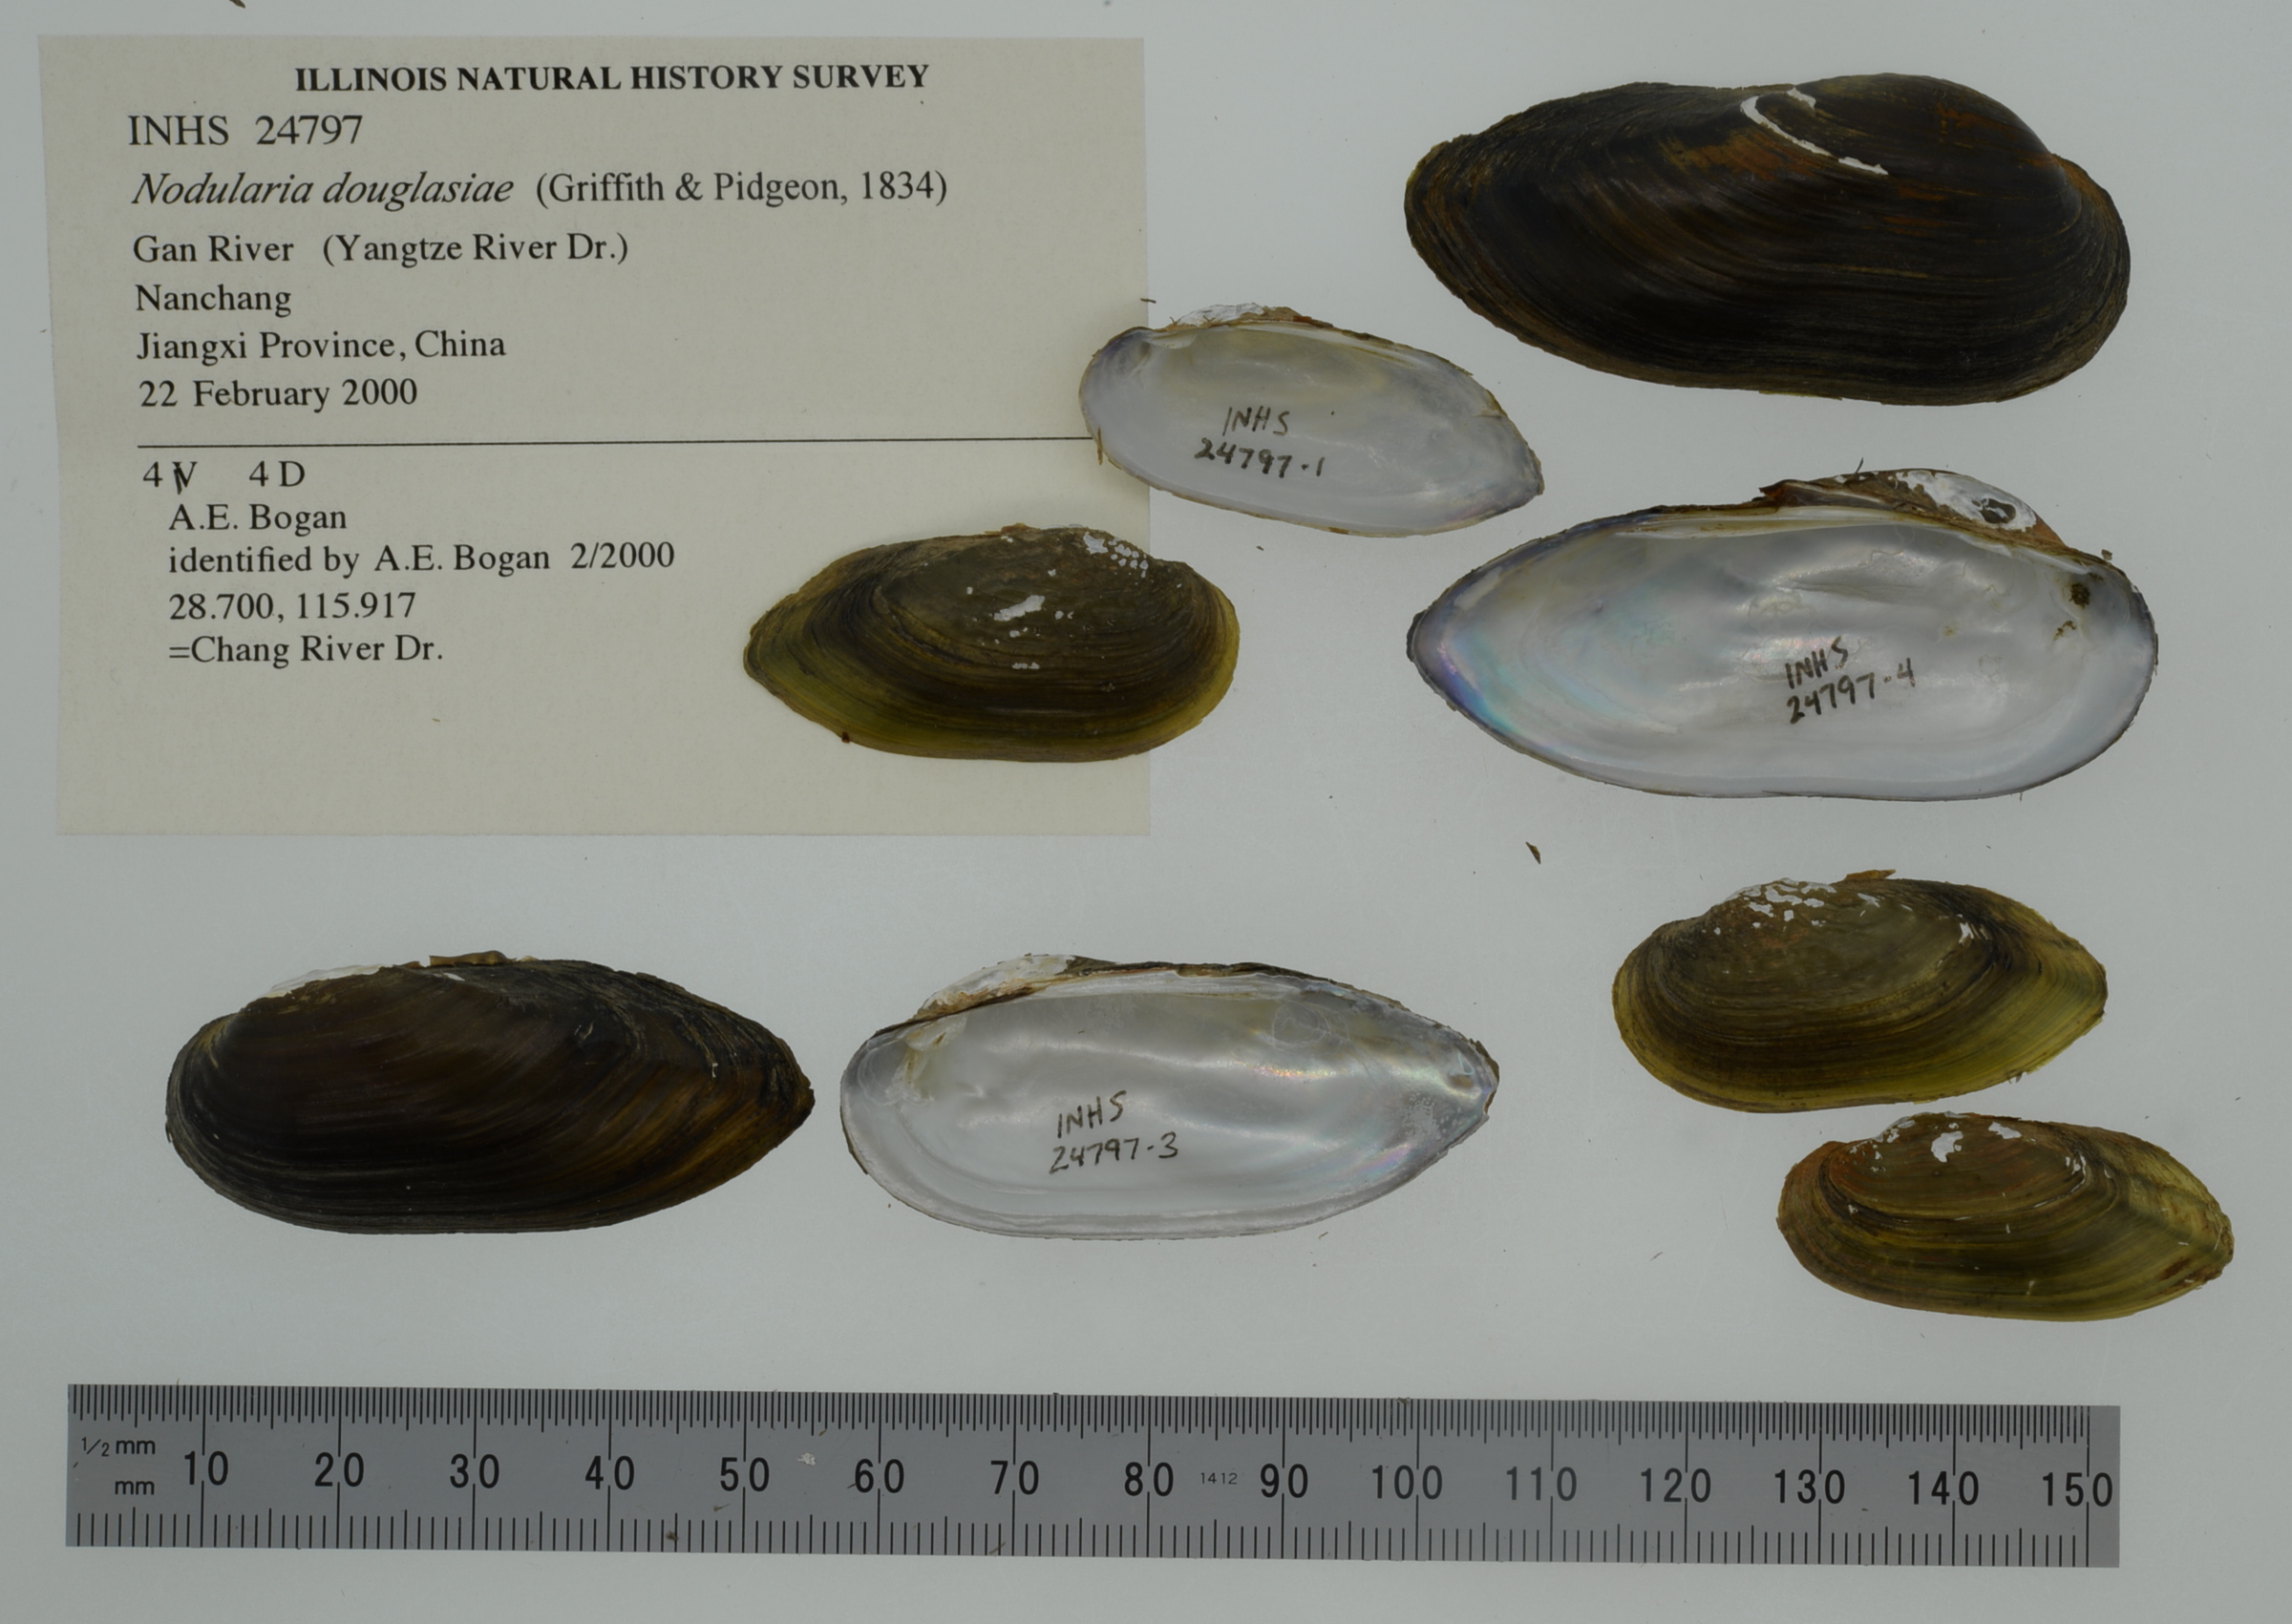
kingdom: Animalia
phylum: Mollusca
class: Bivalvia
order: Unionida
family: Unionidae
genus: Nodularia
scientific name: Nodularia douglasiae
